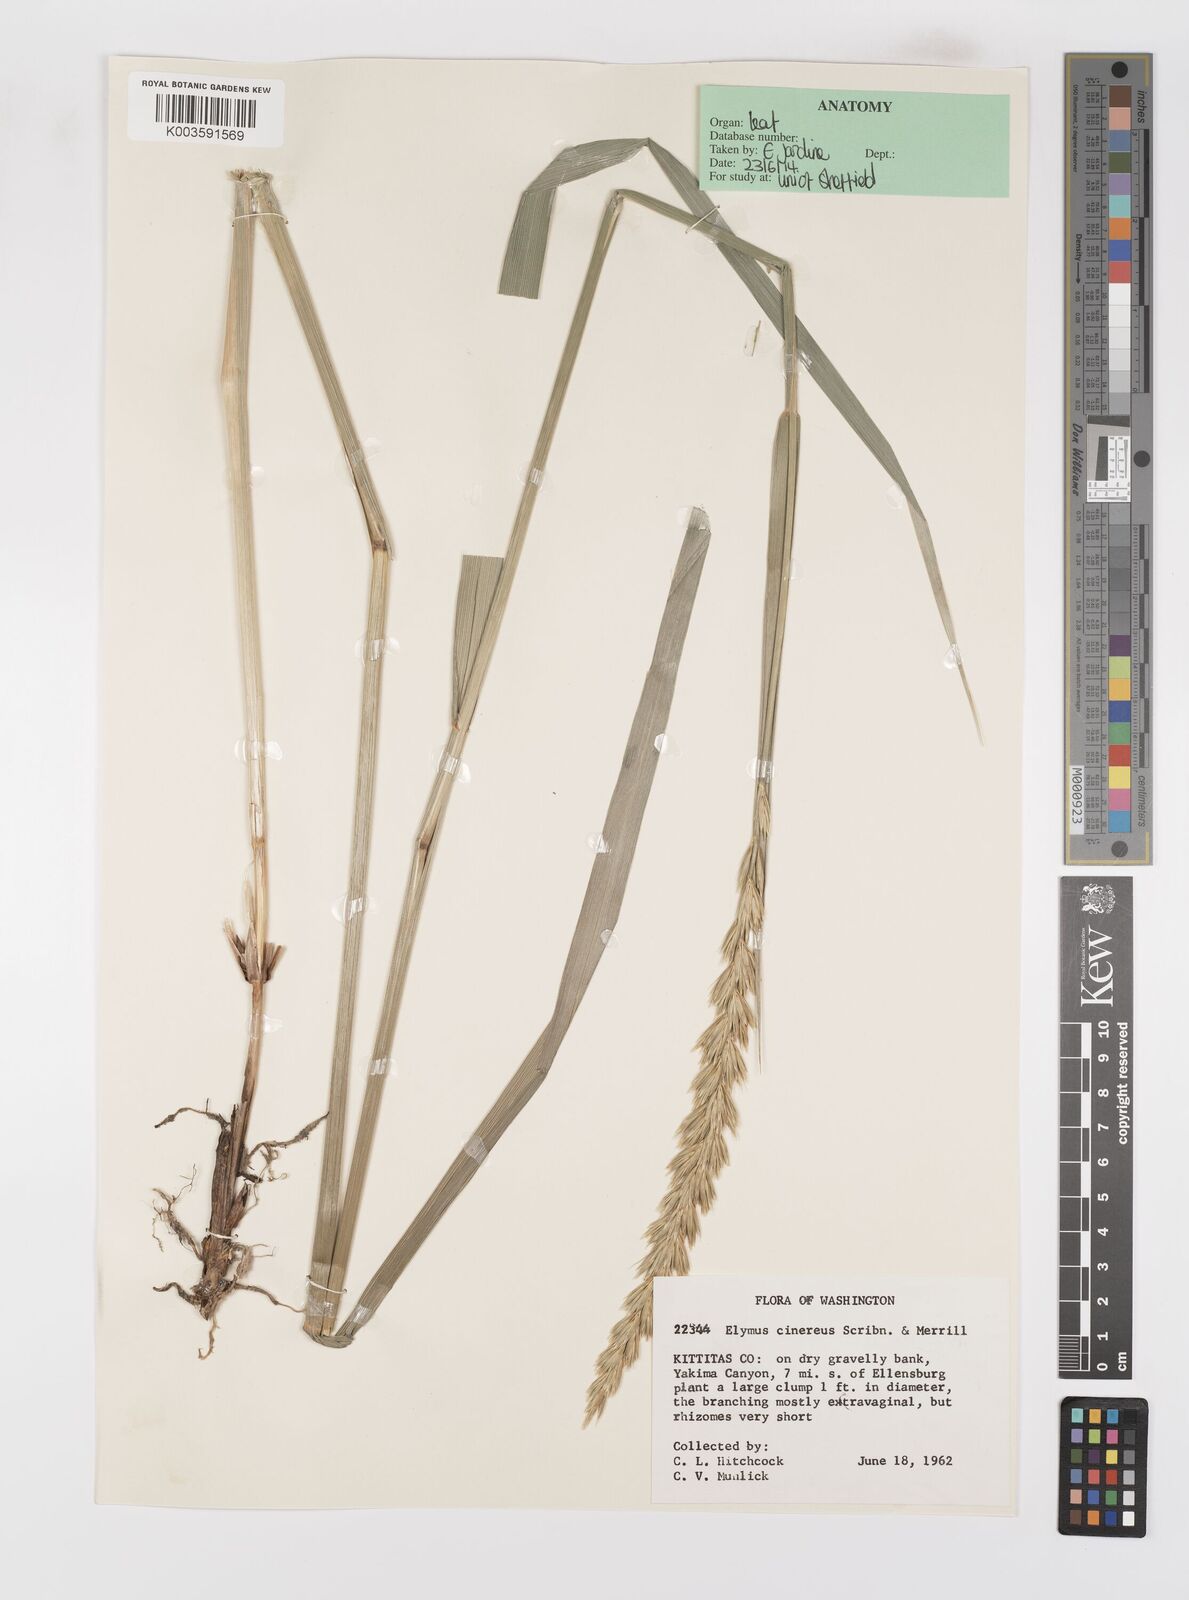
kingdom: Plantae
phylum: Tracheophyta
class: Liliopsida
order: Poales
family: Poaceae
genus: Leymus
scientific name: Leymus cinereus
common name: Basin wild rye
